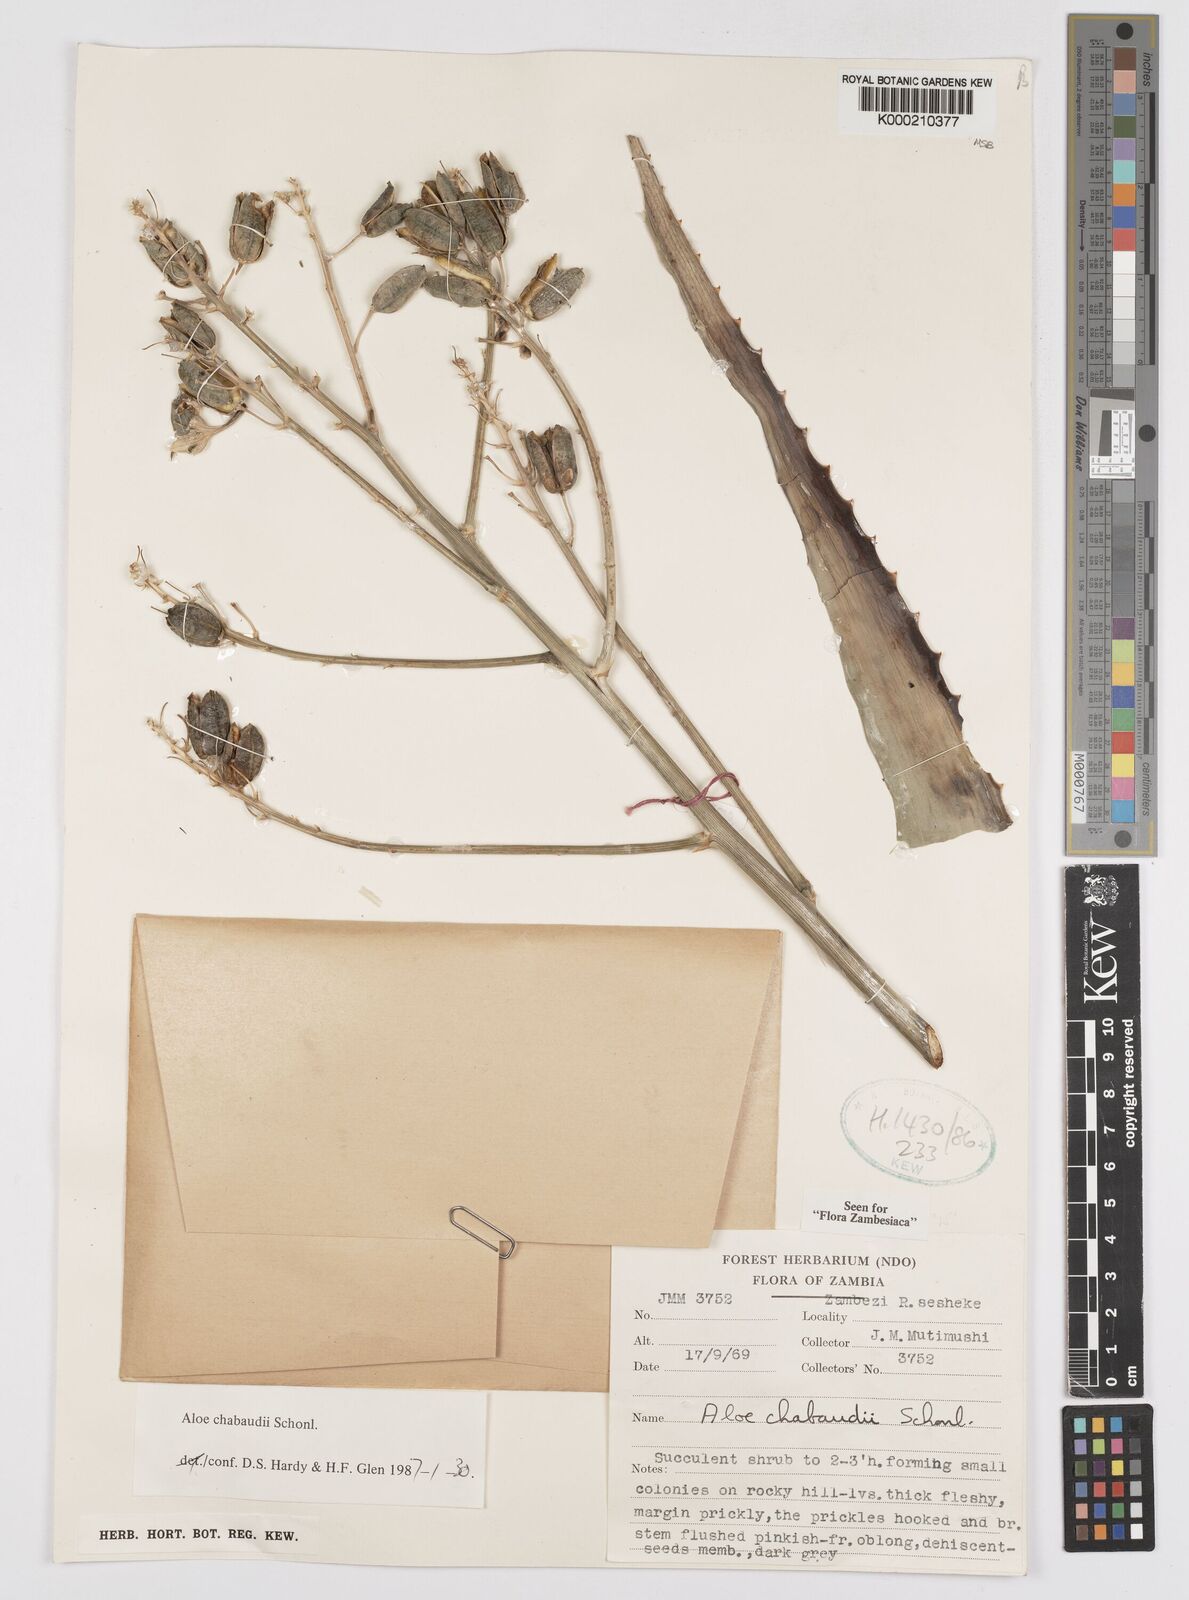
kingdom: Plantae
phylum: Tracheophyta
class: Liliopsida
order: Asparagales
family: Asphodelaceae
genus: Aloe
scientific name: Aloe chabaudii
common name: Chabaud's aloe
